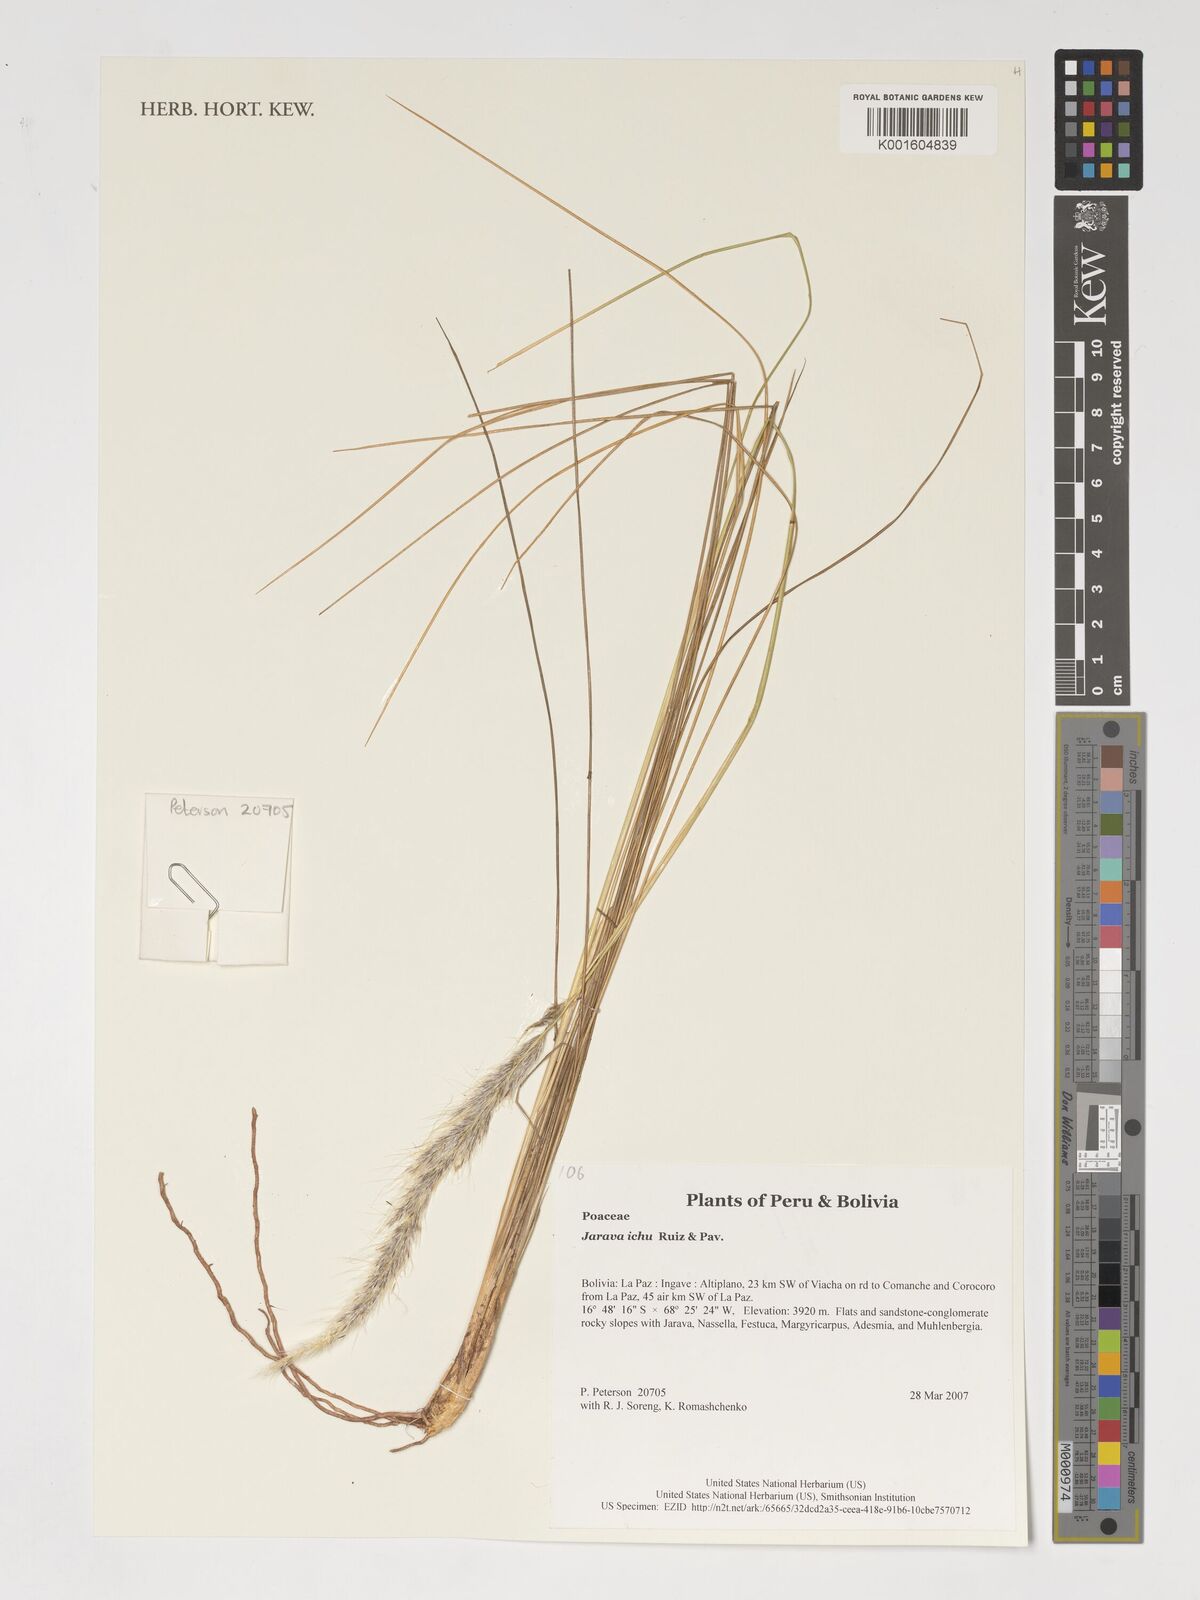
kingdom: Plantae
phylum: Tracheophyta
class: Liliopsida
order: Poales
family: Poaceae
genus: Jarava
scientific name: Jarava ichu
